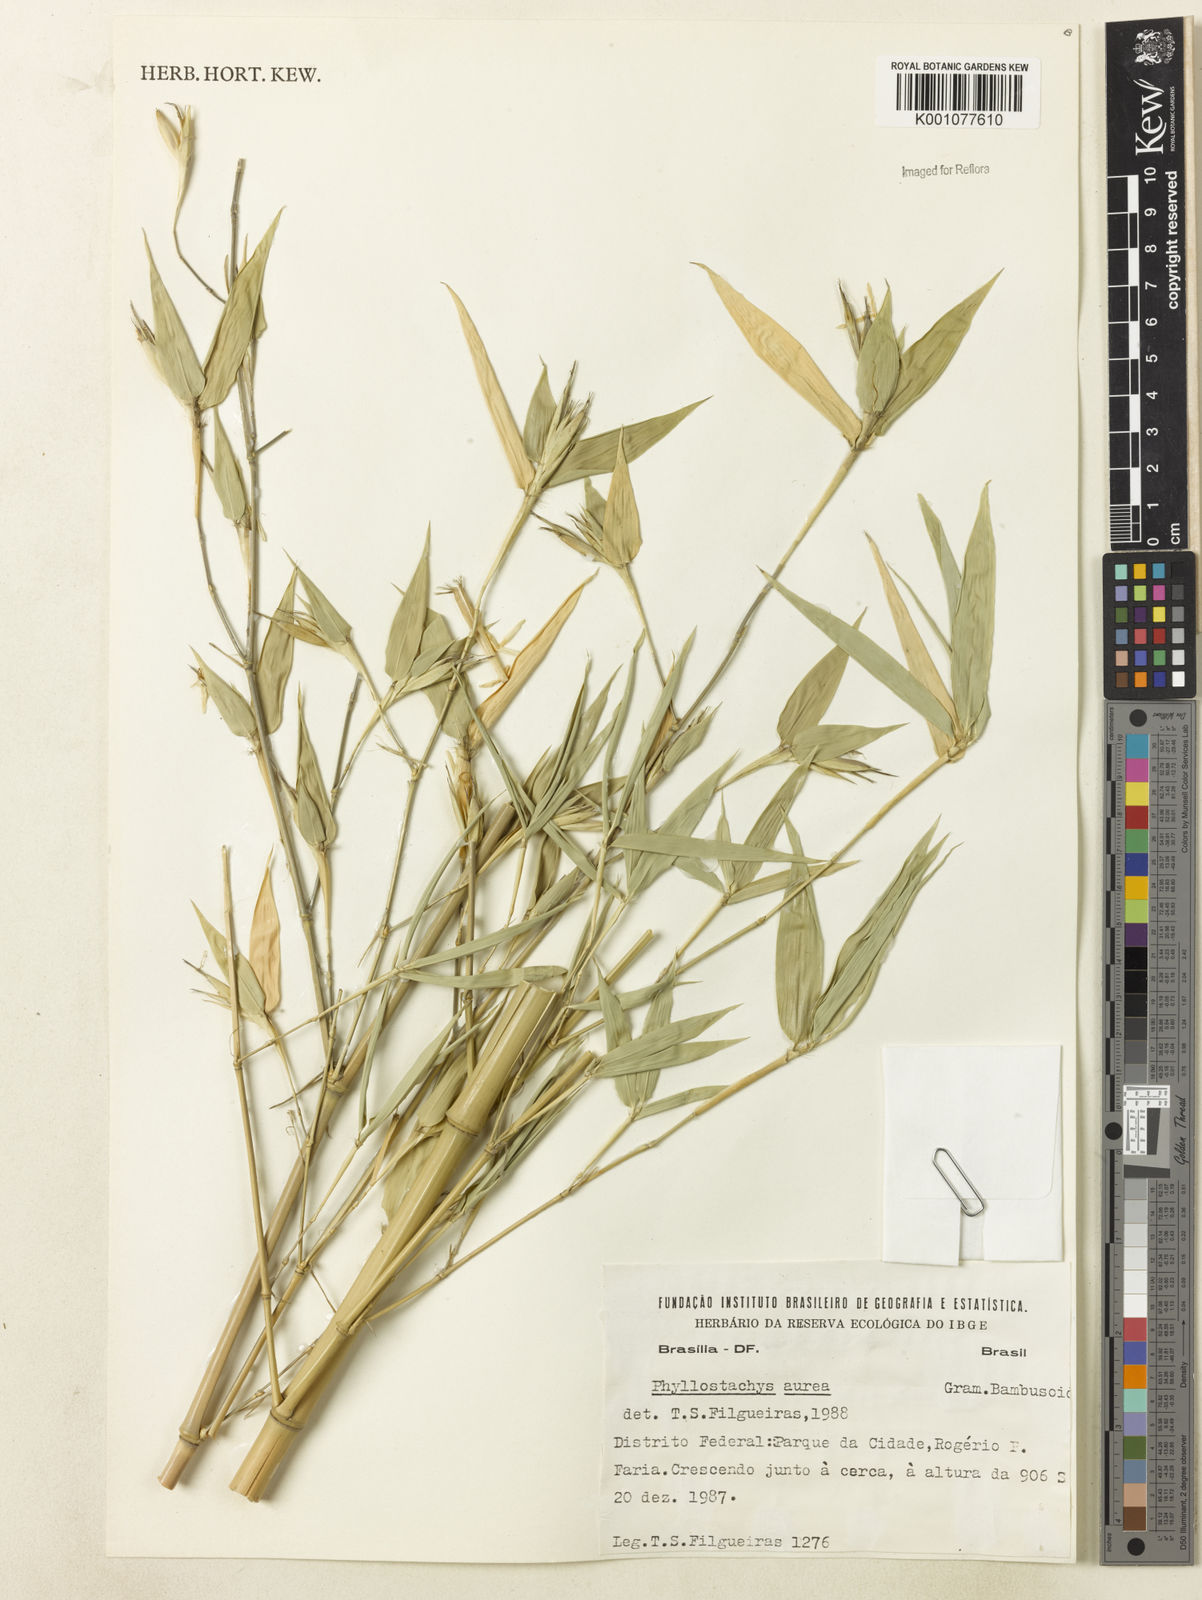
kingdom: Plantae
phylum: Tracheophyta
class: Liliopsida
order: Poales
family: Poaceae
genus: Phyllostachys
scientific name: Phyllostachys
